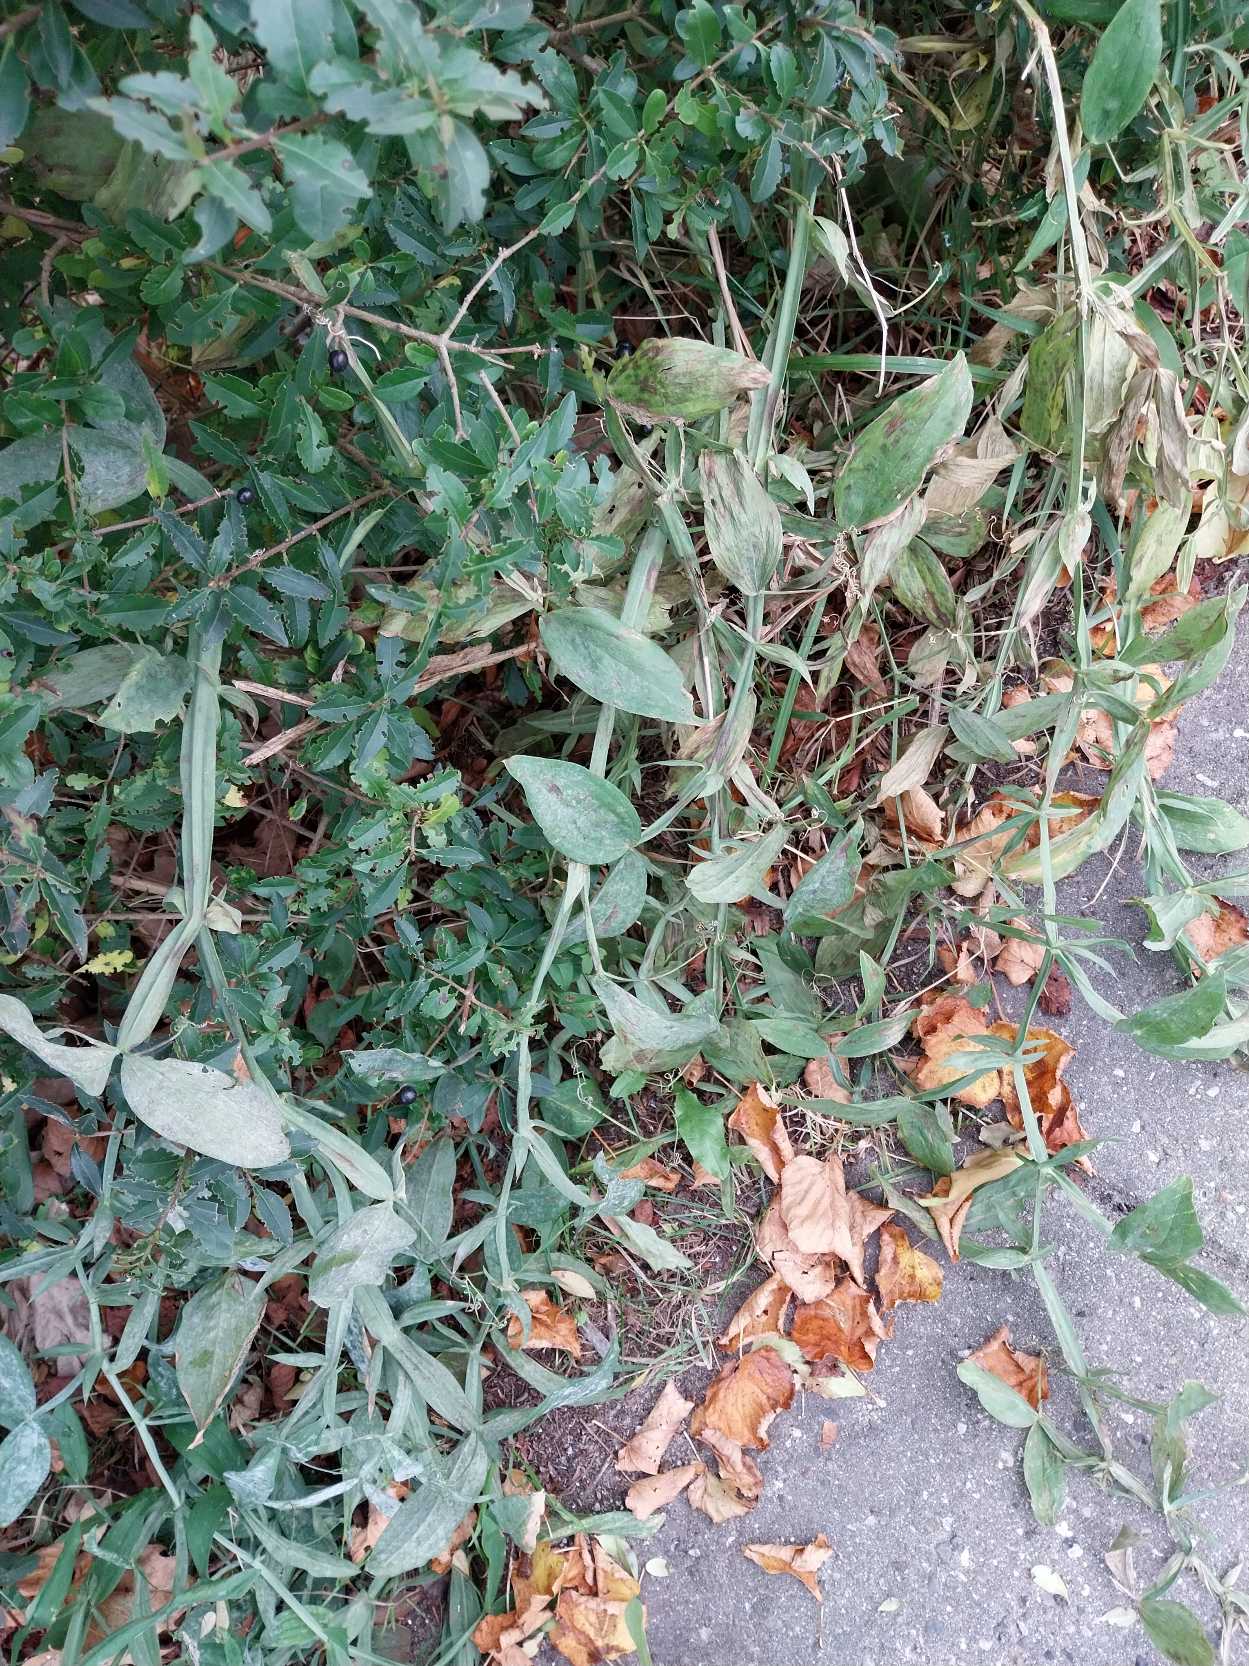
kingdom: Plantae
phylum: Tracheophyta
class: Magnoliopsida
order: Fabales
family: Fabaceae
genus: Lathyrus
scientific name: Lathyrus latifolius
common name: Flerårig ærteblomst
